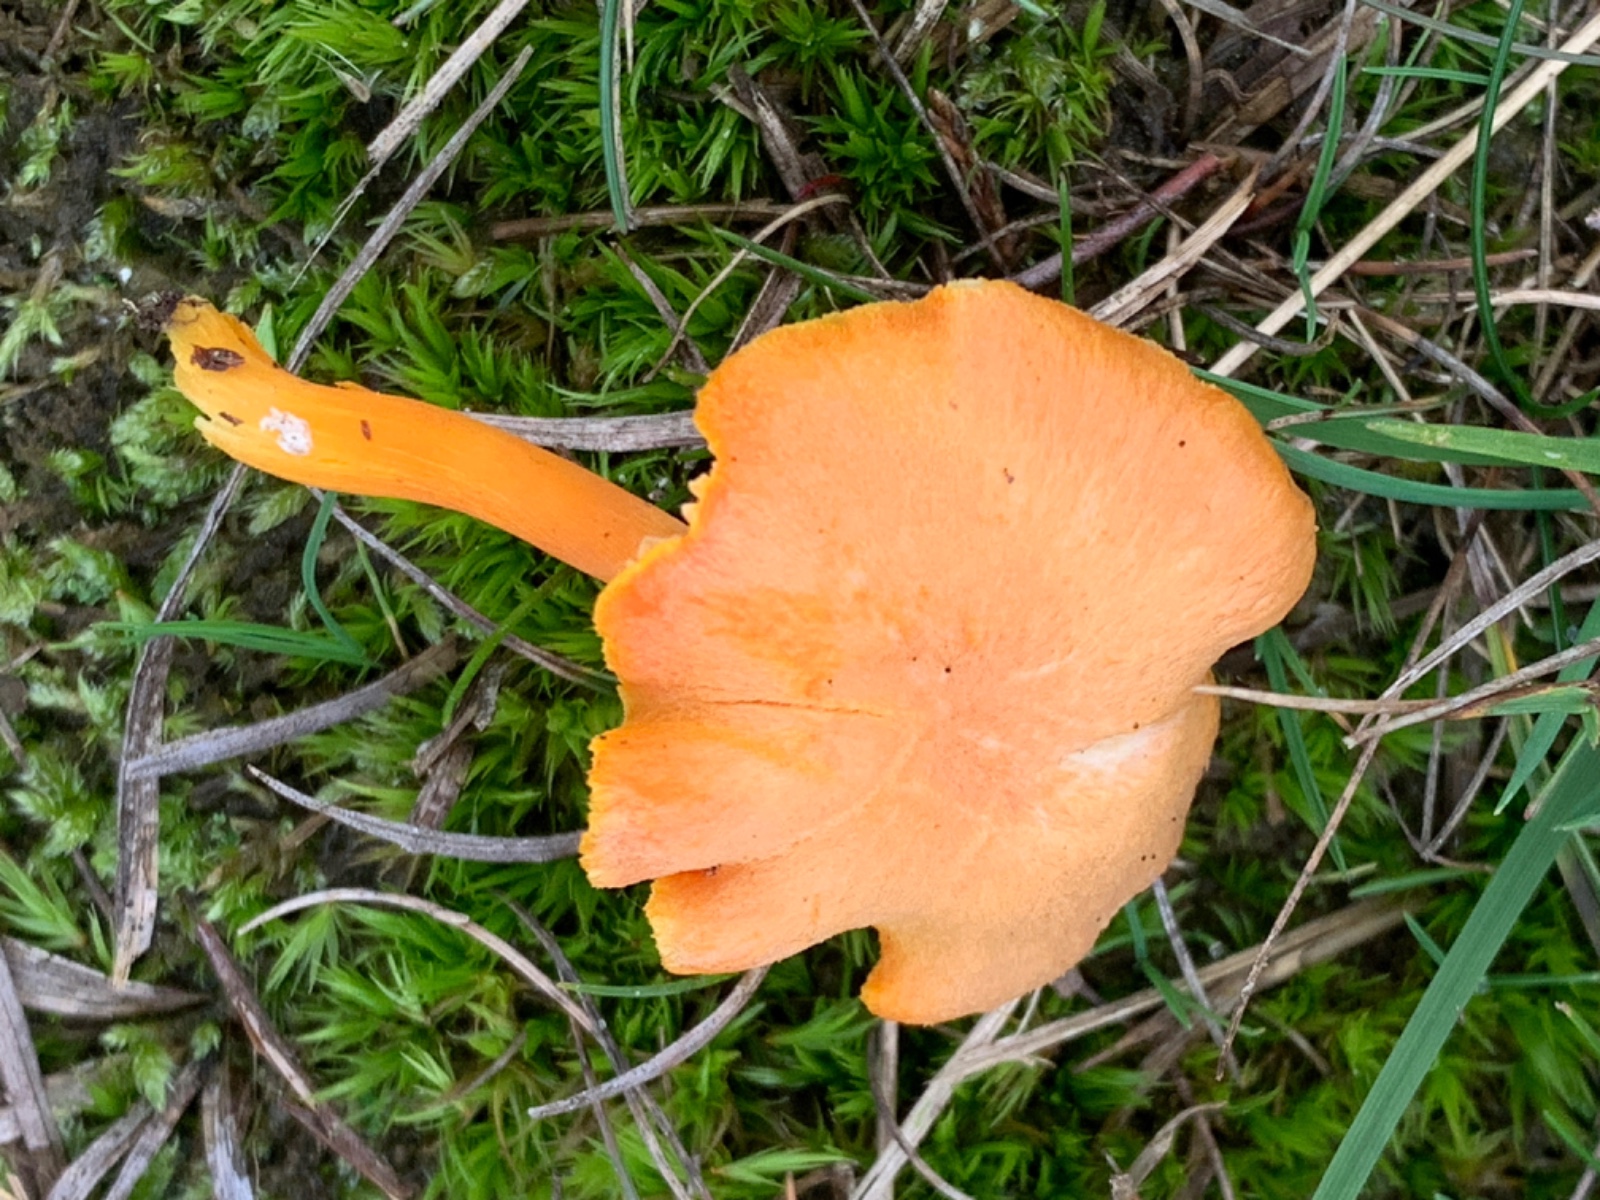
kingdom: Fungi
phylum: Basidiomycota
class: Agaricomycetes
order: Agaricales
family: Hygrophoraceae
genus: Hygrocybe
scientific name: Hygrocybe miniata
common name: mønje-vokshat
